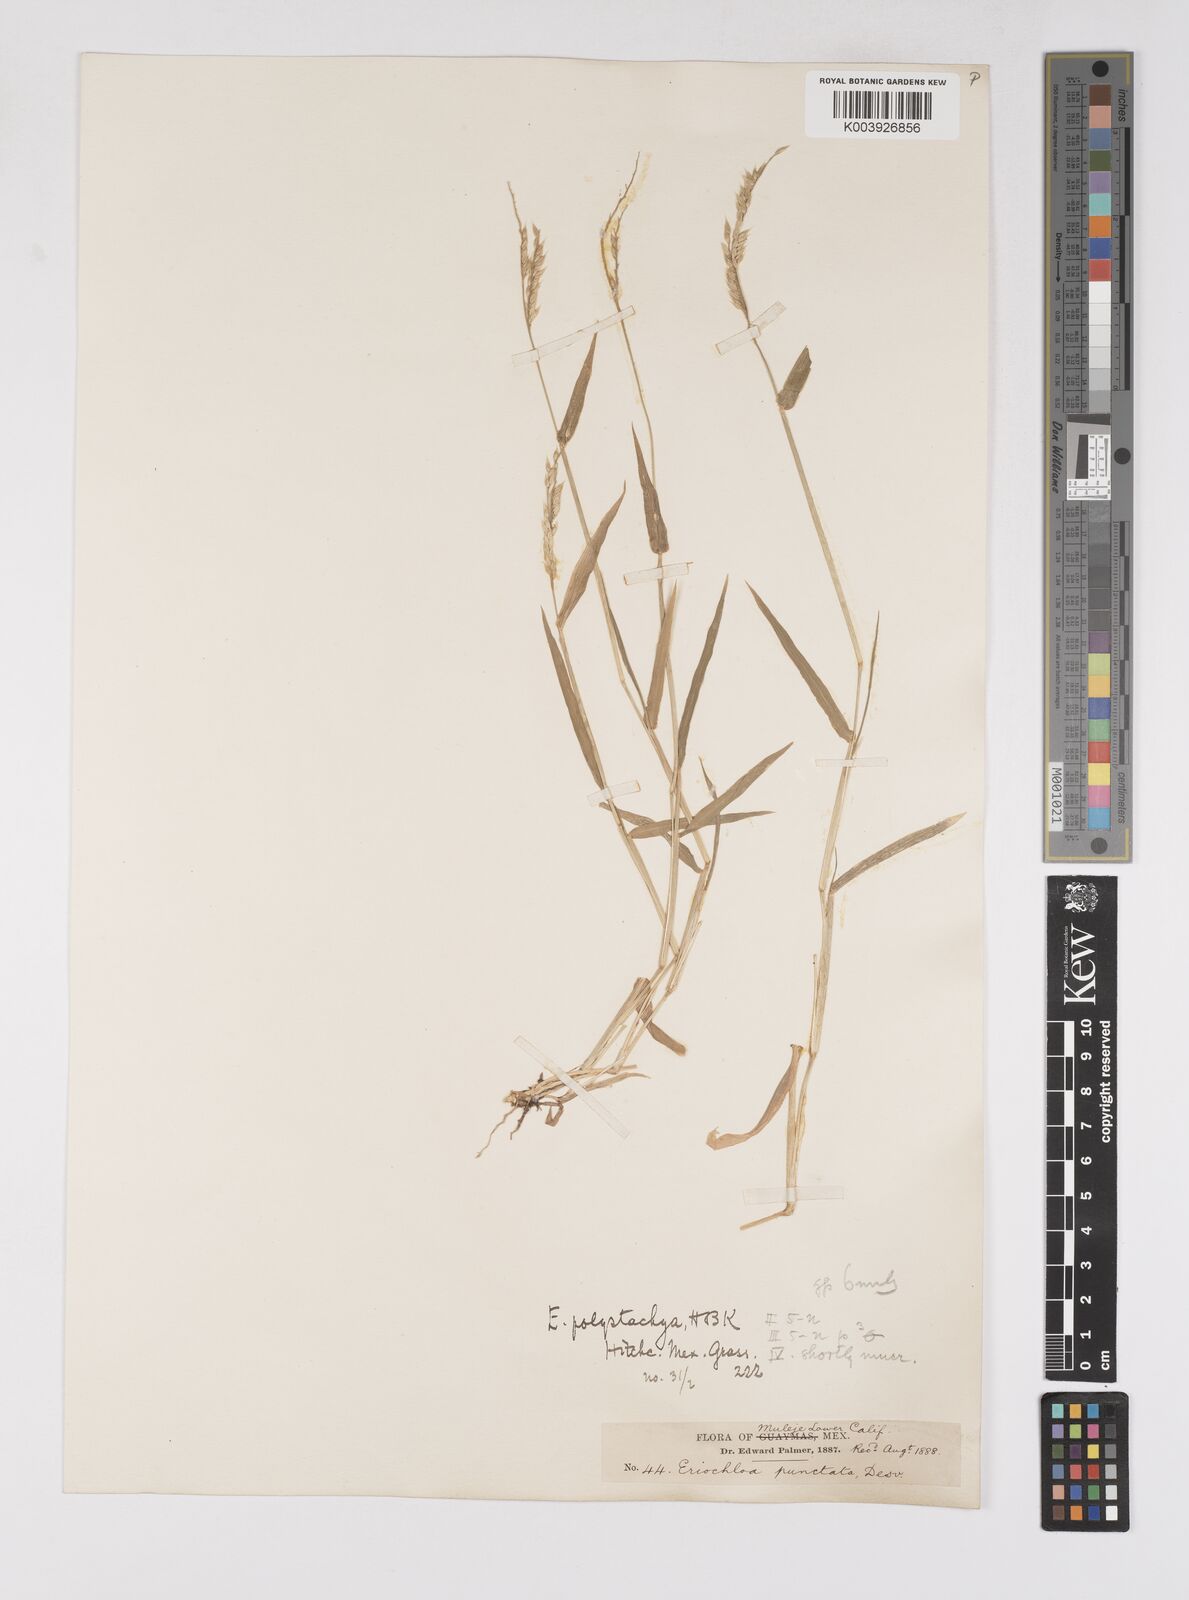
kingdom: Plantae
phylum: Tracheophyta
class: Liliopsida
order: Poales
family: Poaceae
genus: Eriochloa
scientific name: Eriochloa aristata
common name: Bearded cup grass
